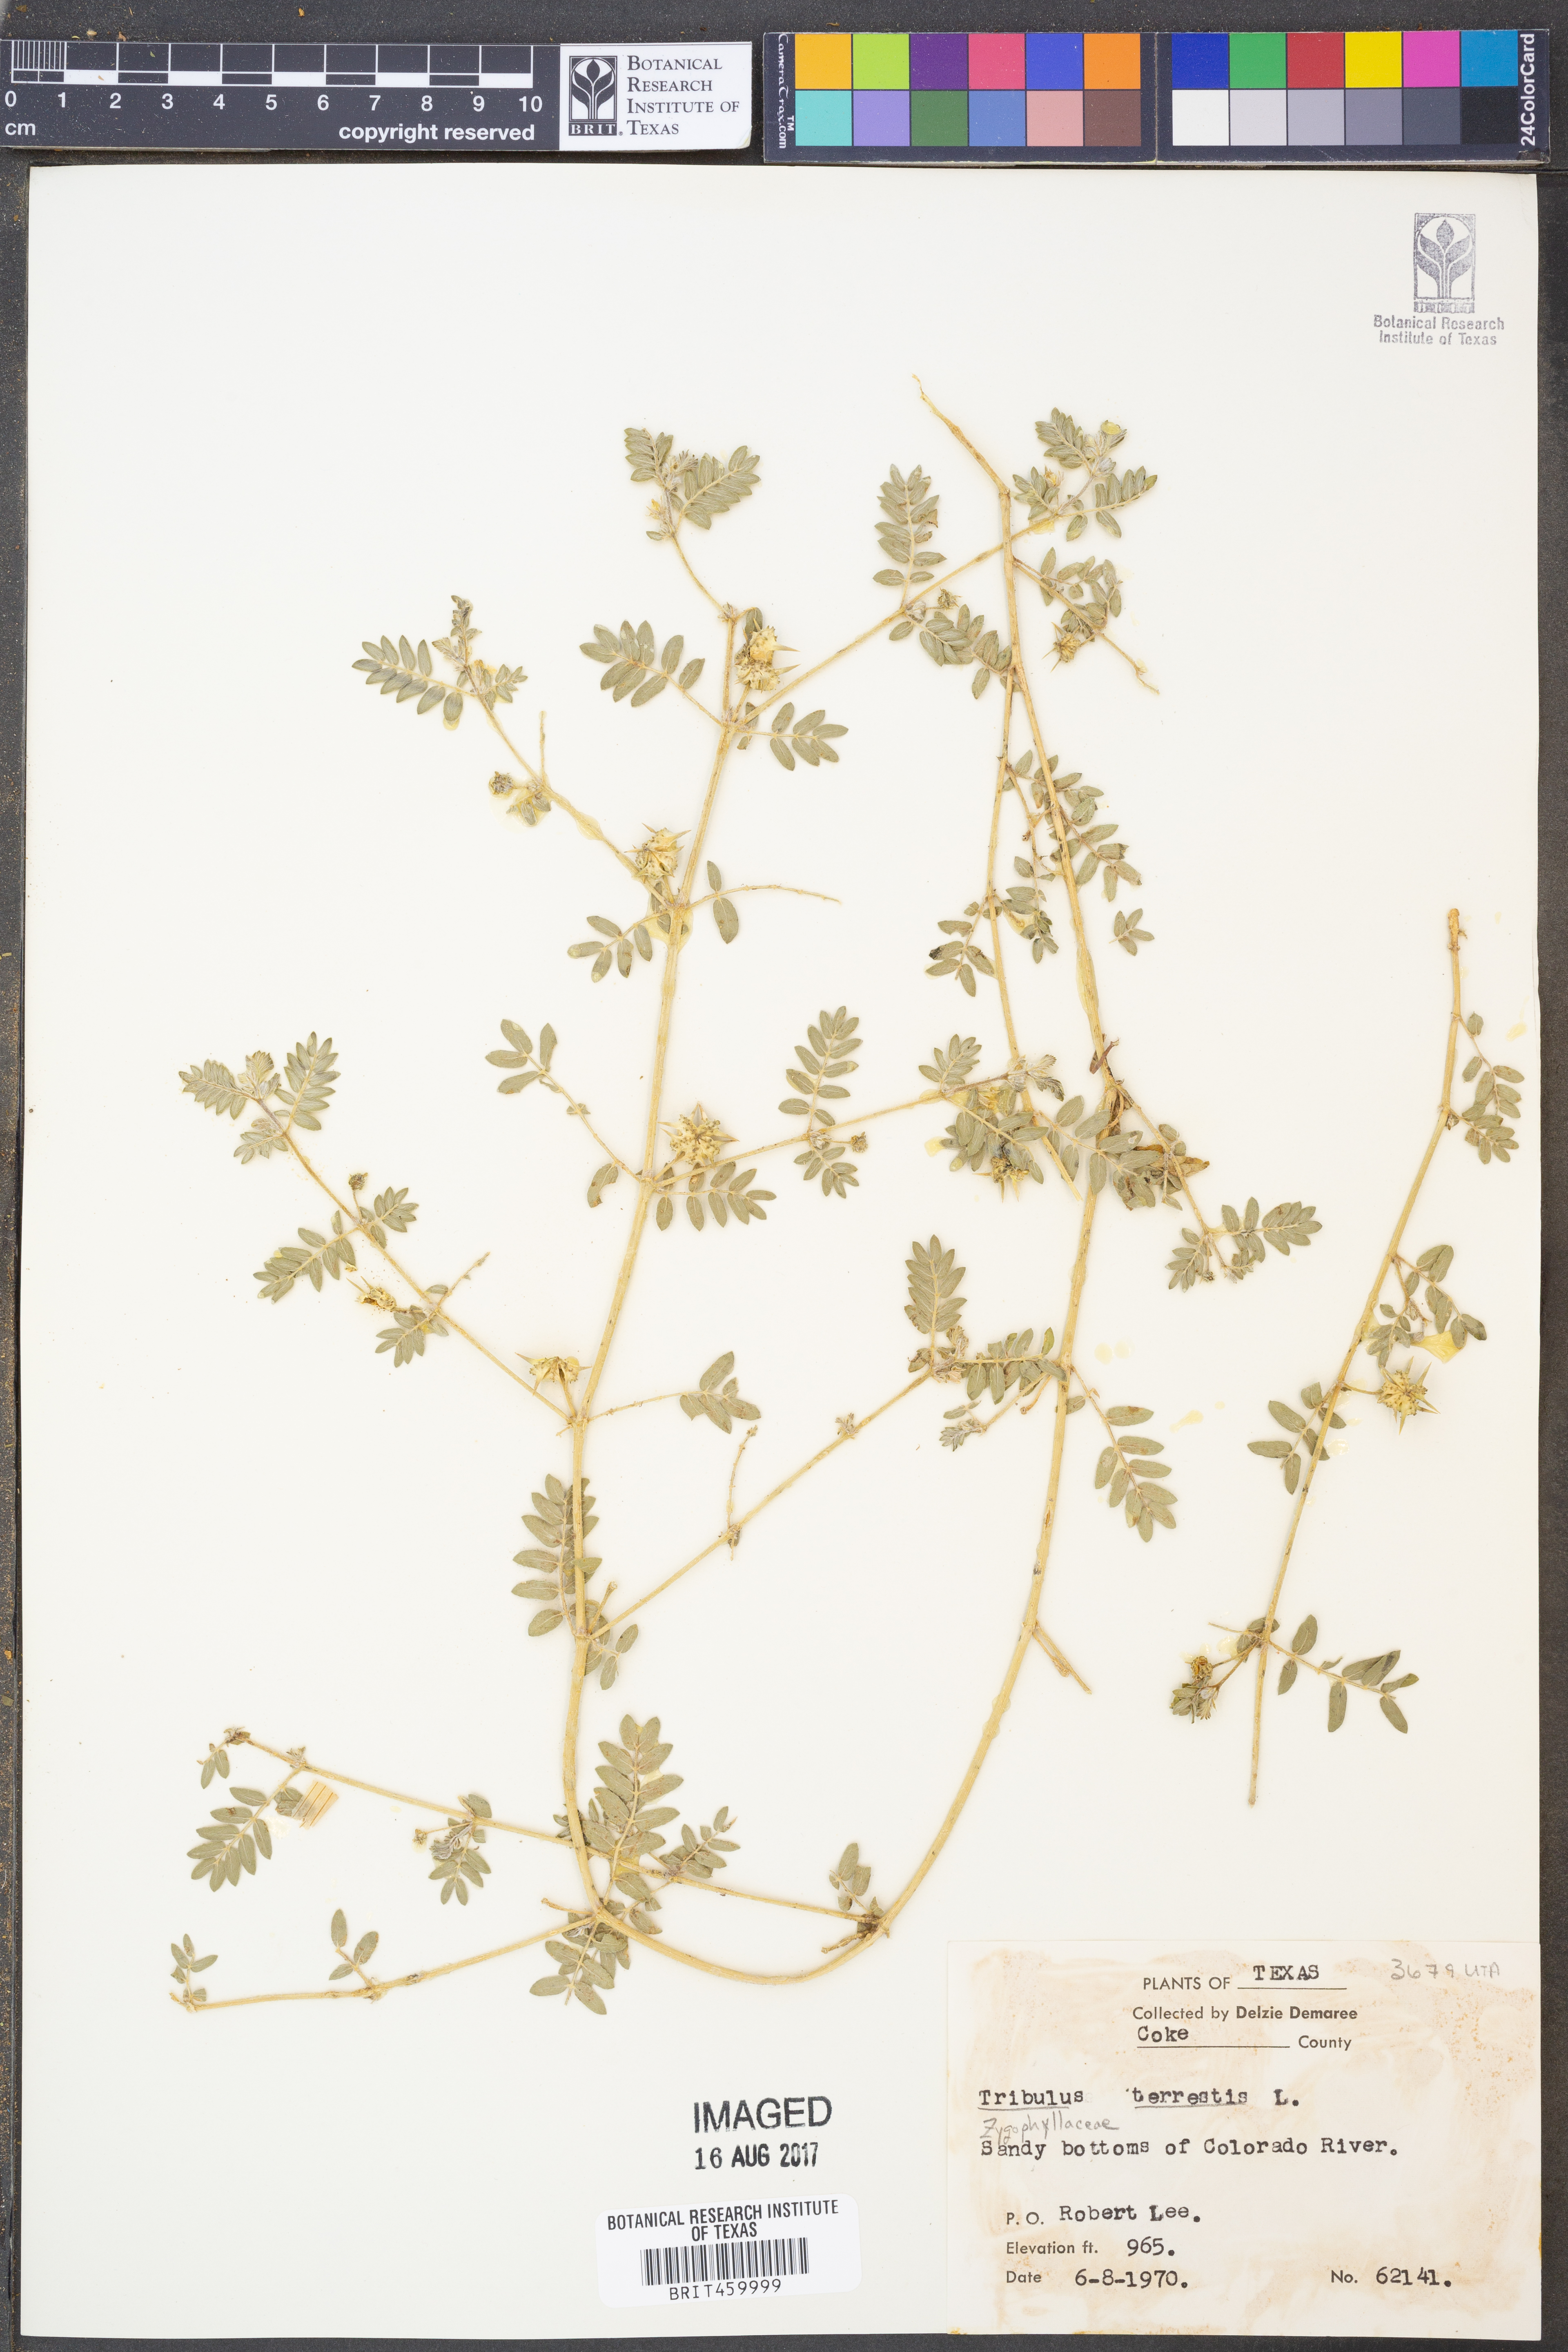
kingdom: Plantae
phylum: Tracheophyta
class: Magnoliopsida
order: Zygophyllales
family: Zygophyllaceae
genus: Tribulus
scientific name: Tribulus terrestris
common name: Puncturevine
